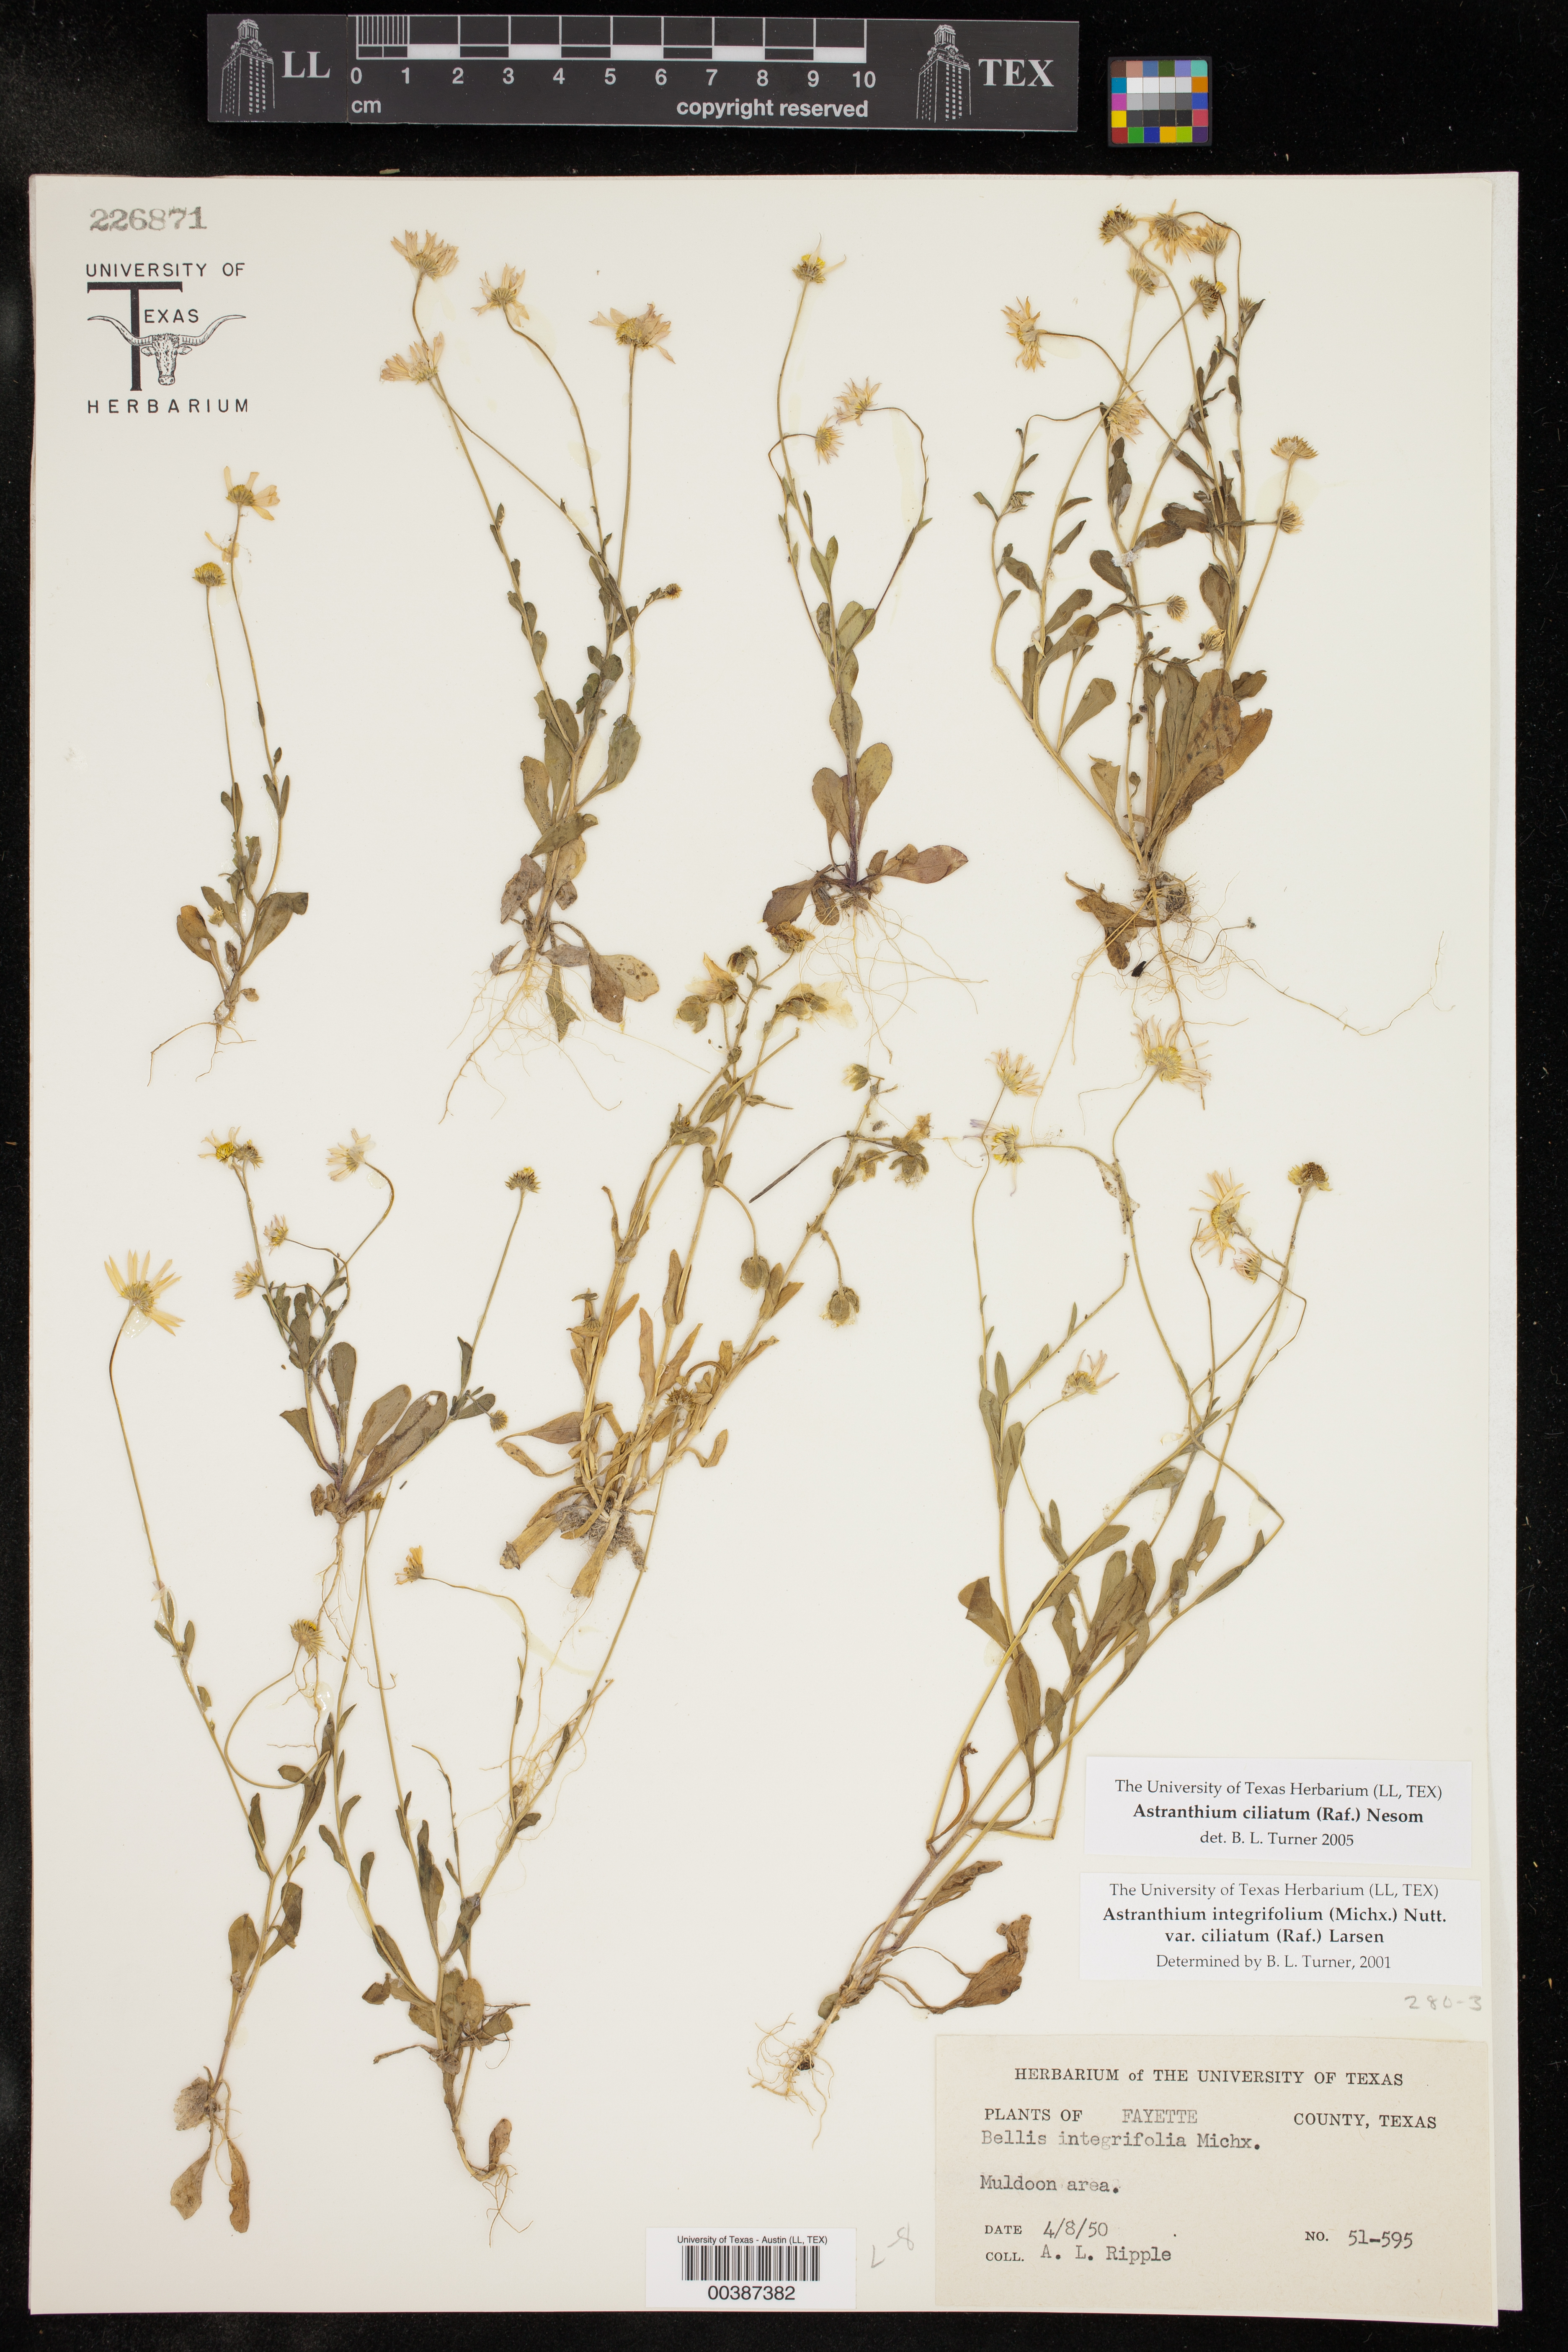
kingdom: Plantae
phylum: Tracheophyta
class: Magnoliopsida
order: Asterales
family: Asteraceae
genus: Astranthium
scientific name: Astranthium ciliatum
